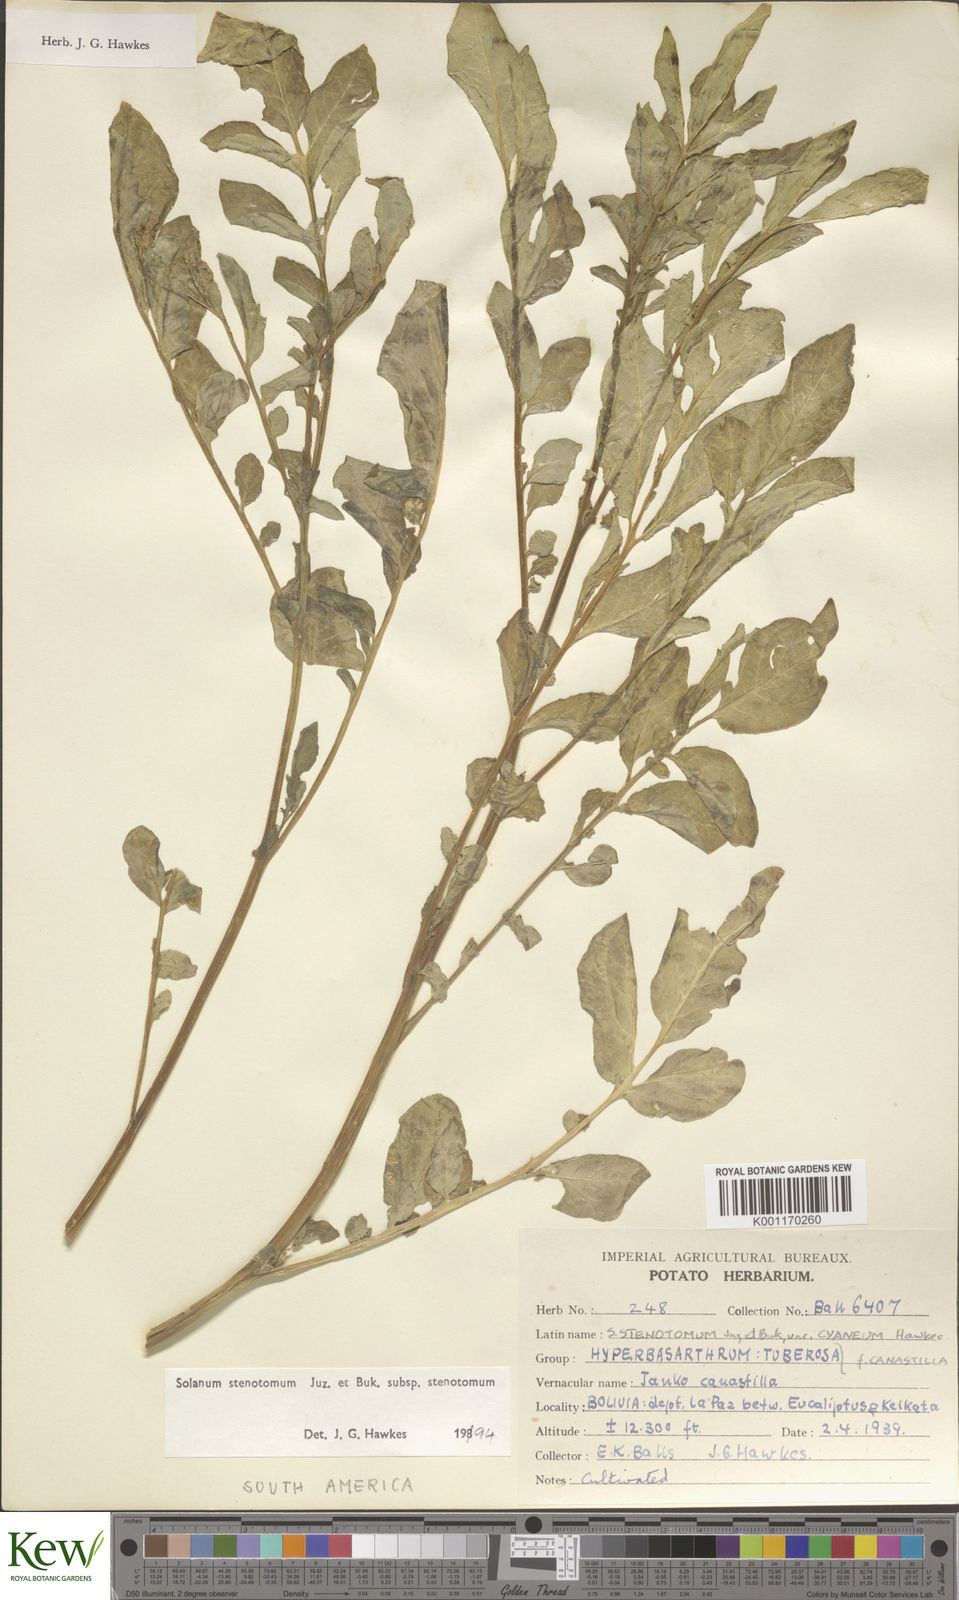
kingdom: Plantae
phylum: Tracheophyta
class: Magnoliopsida
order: Solanales
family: Solanaceae
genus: Solanum
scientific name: Solanum tuberosum
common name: Potato
